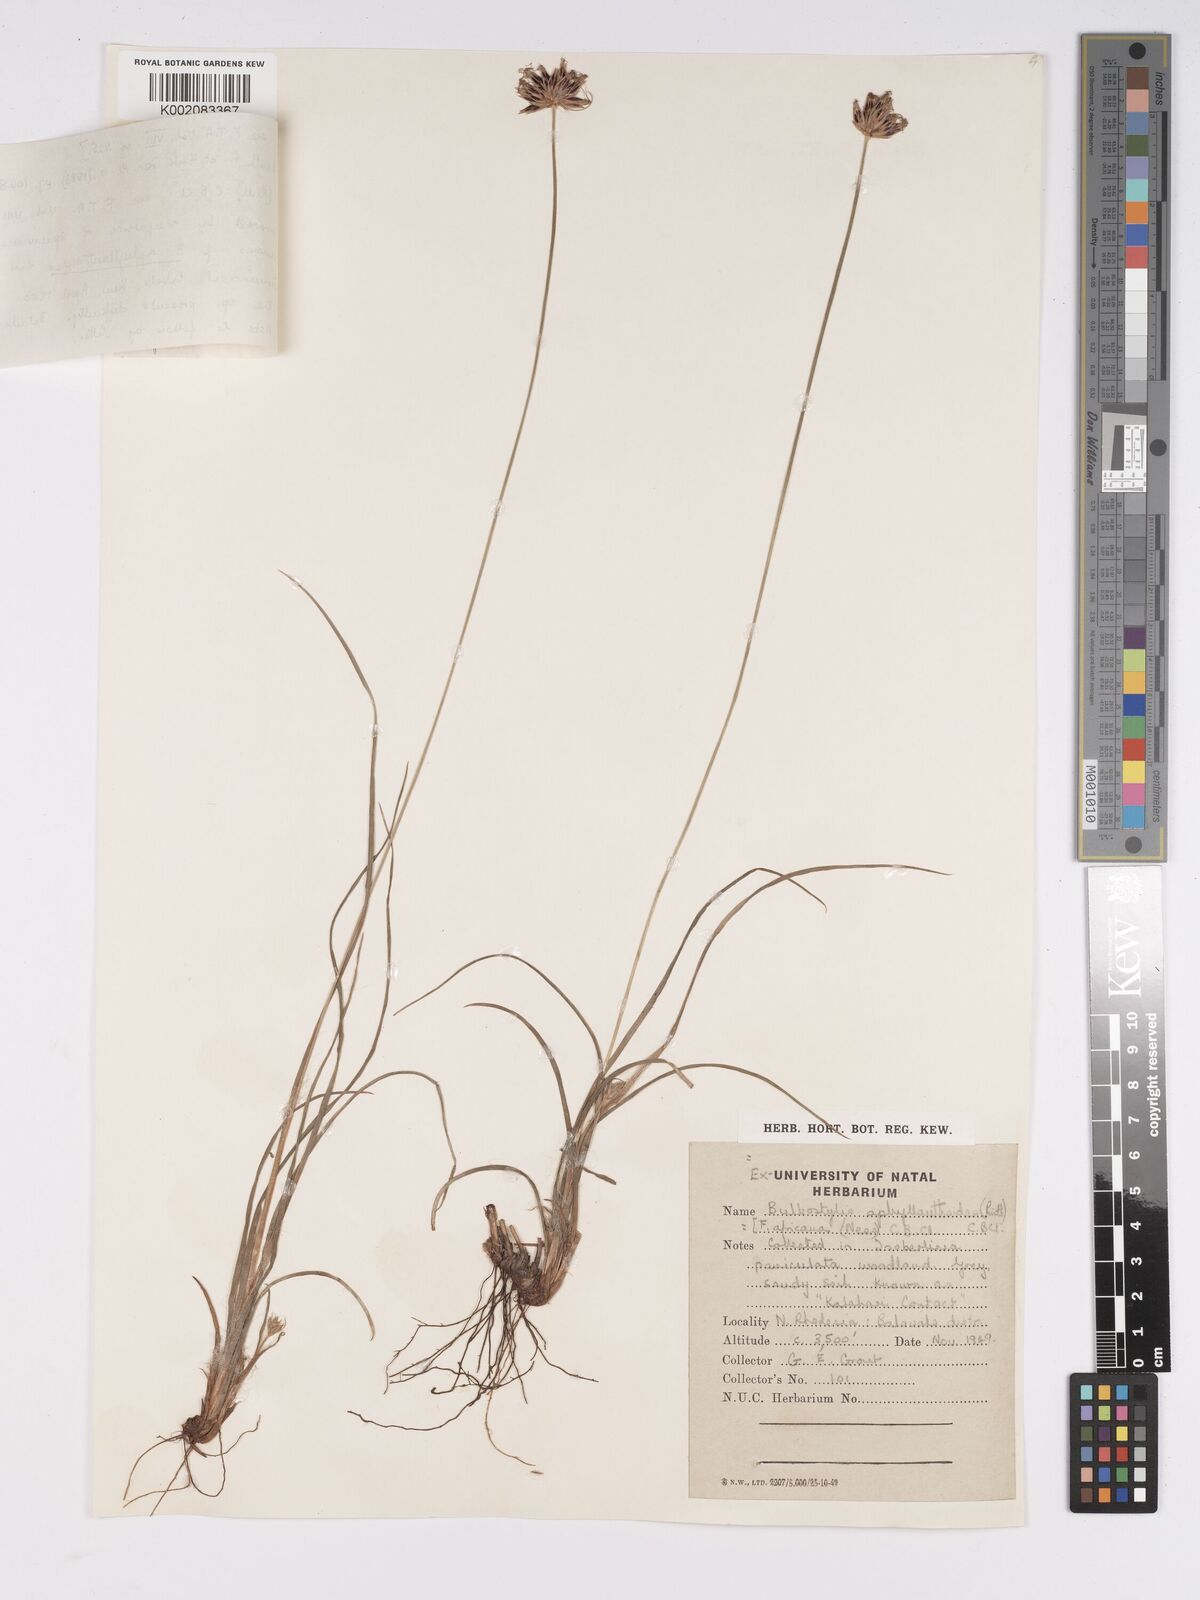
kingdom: Plantae
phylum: Tracheophyta
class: Liliopsida
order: Poales
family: Cyperaceae
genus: Bulbostylis
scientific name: Bulbostylis pilosa
